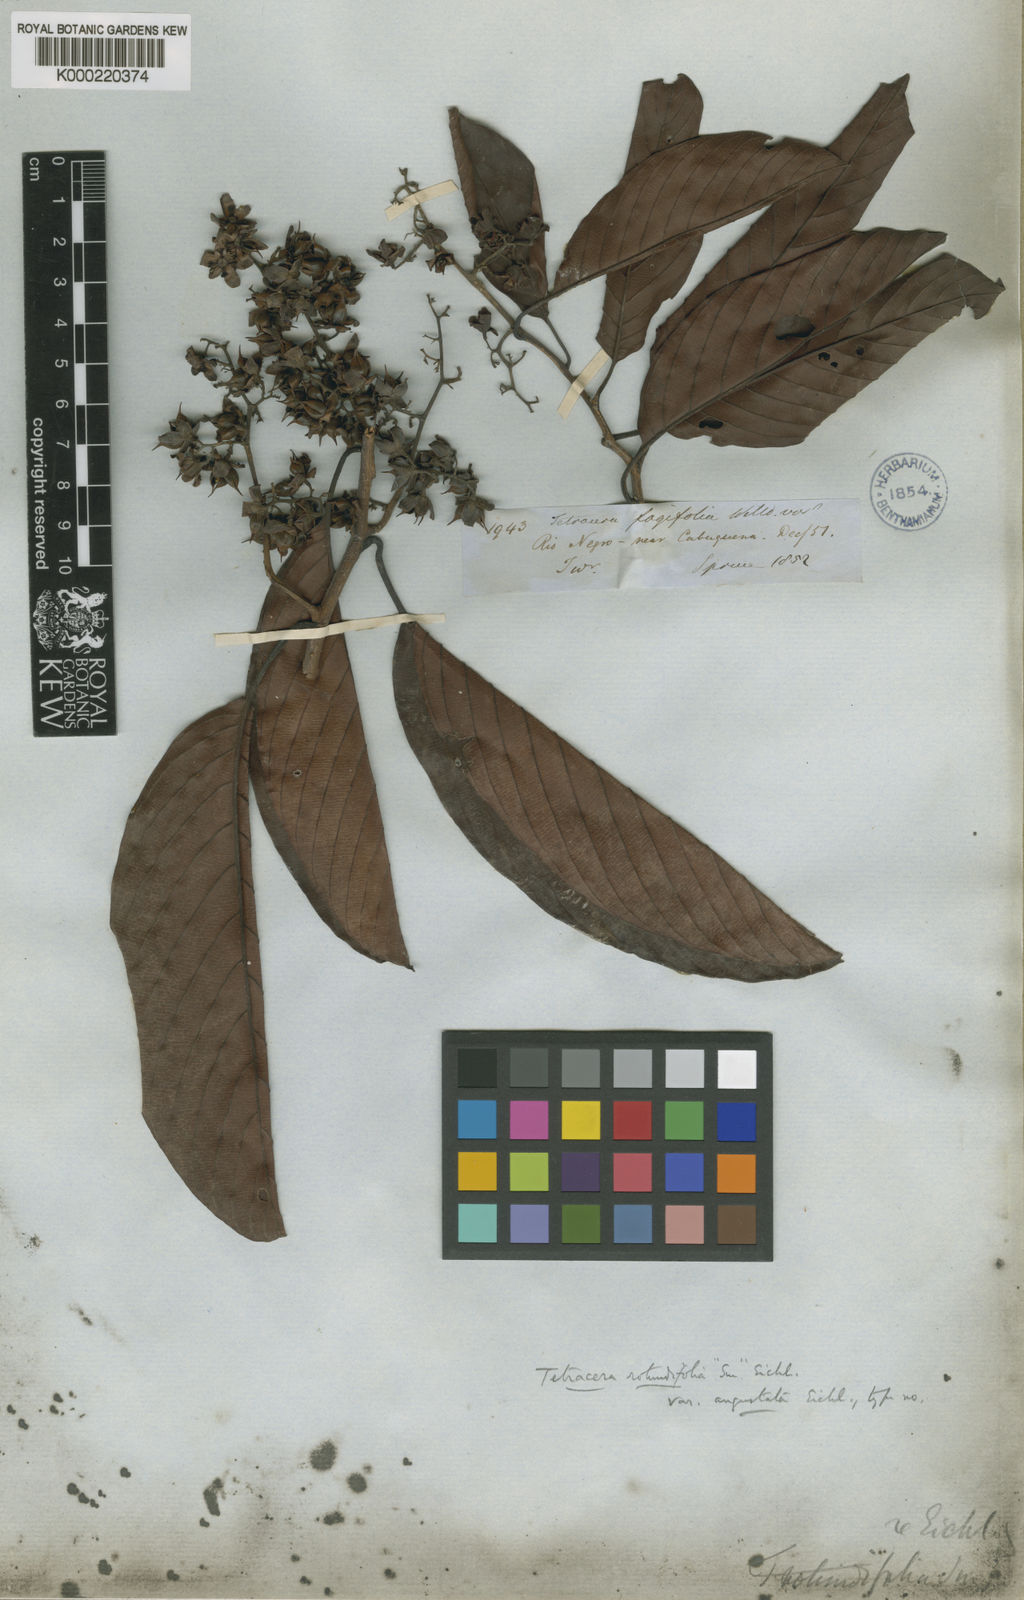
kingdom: Plantae
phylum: Tracheophyta
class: Magnoliopsida
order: Dilleniales
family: Dilleniaceae
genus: Tetracera
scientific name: Tetracera willdenowiana
